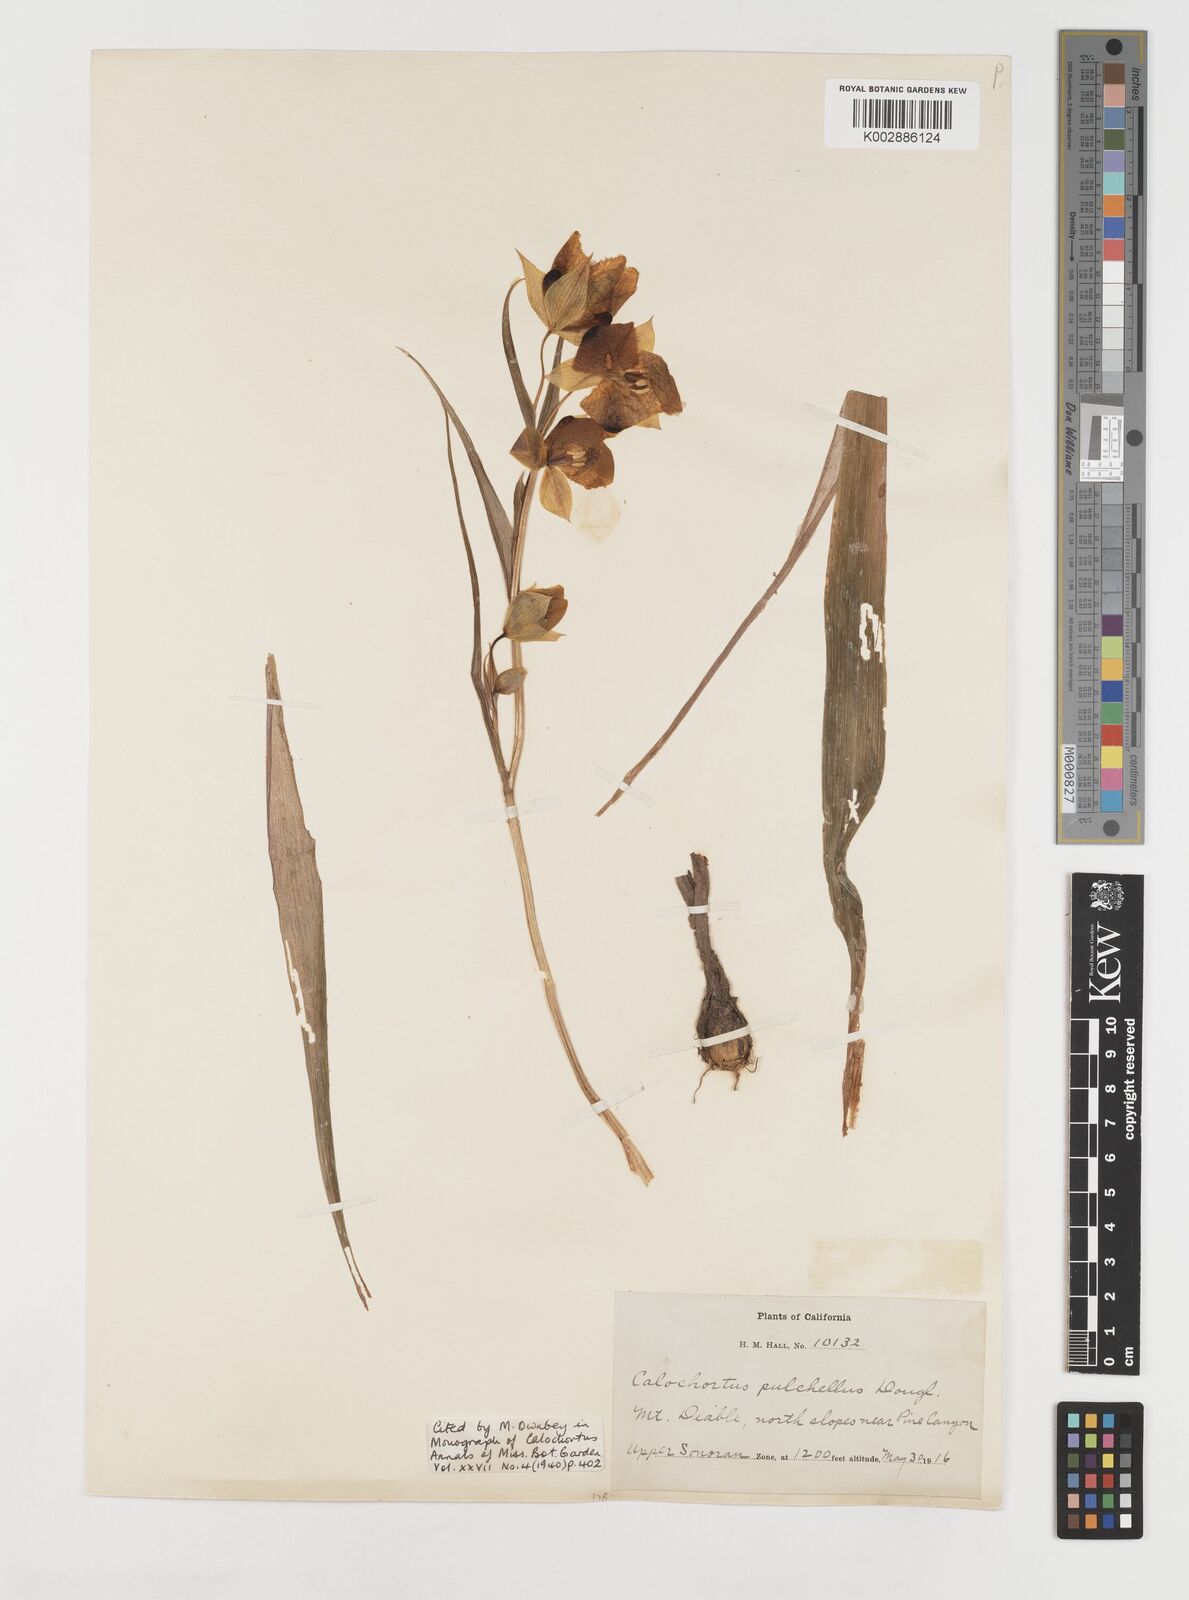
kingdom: Plantae
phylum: Tracheophyta
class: Liliopsida
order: Liliales
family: Liliaceae
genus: Calochortus
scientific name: Calochortus pulchellus
